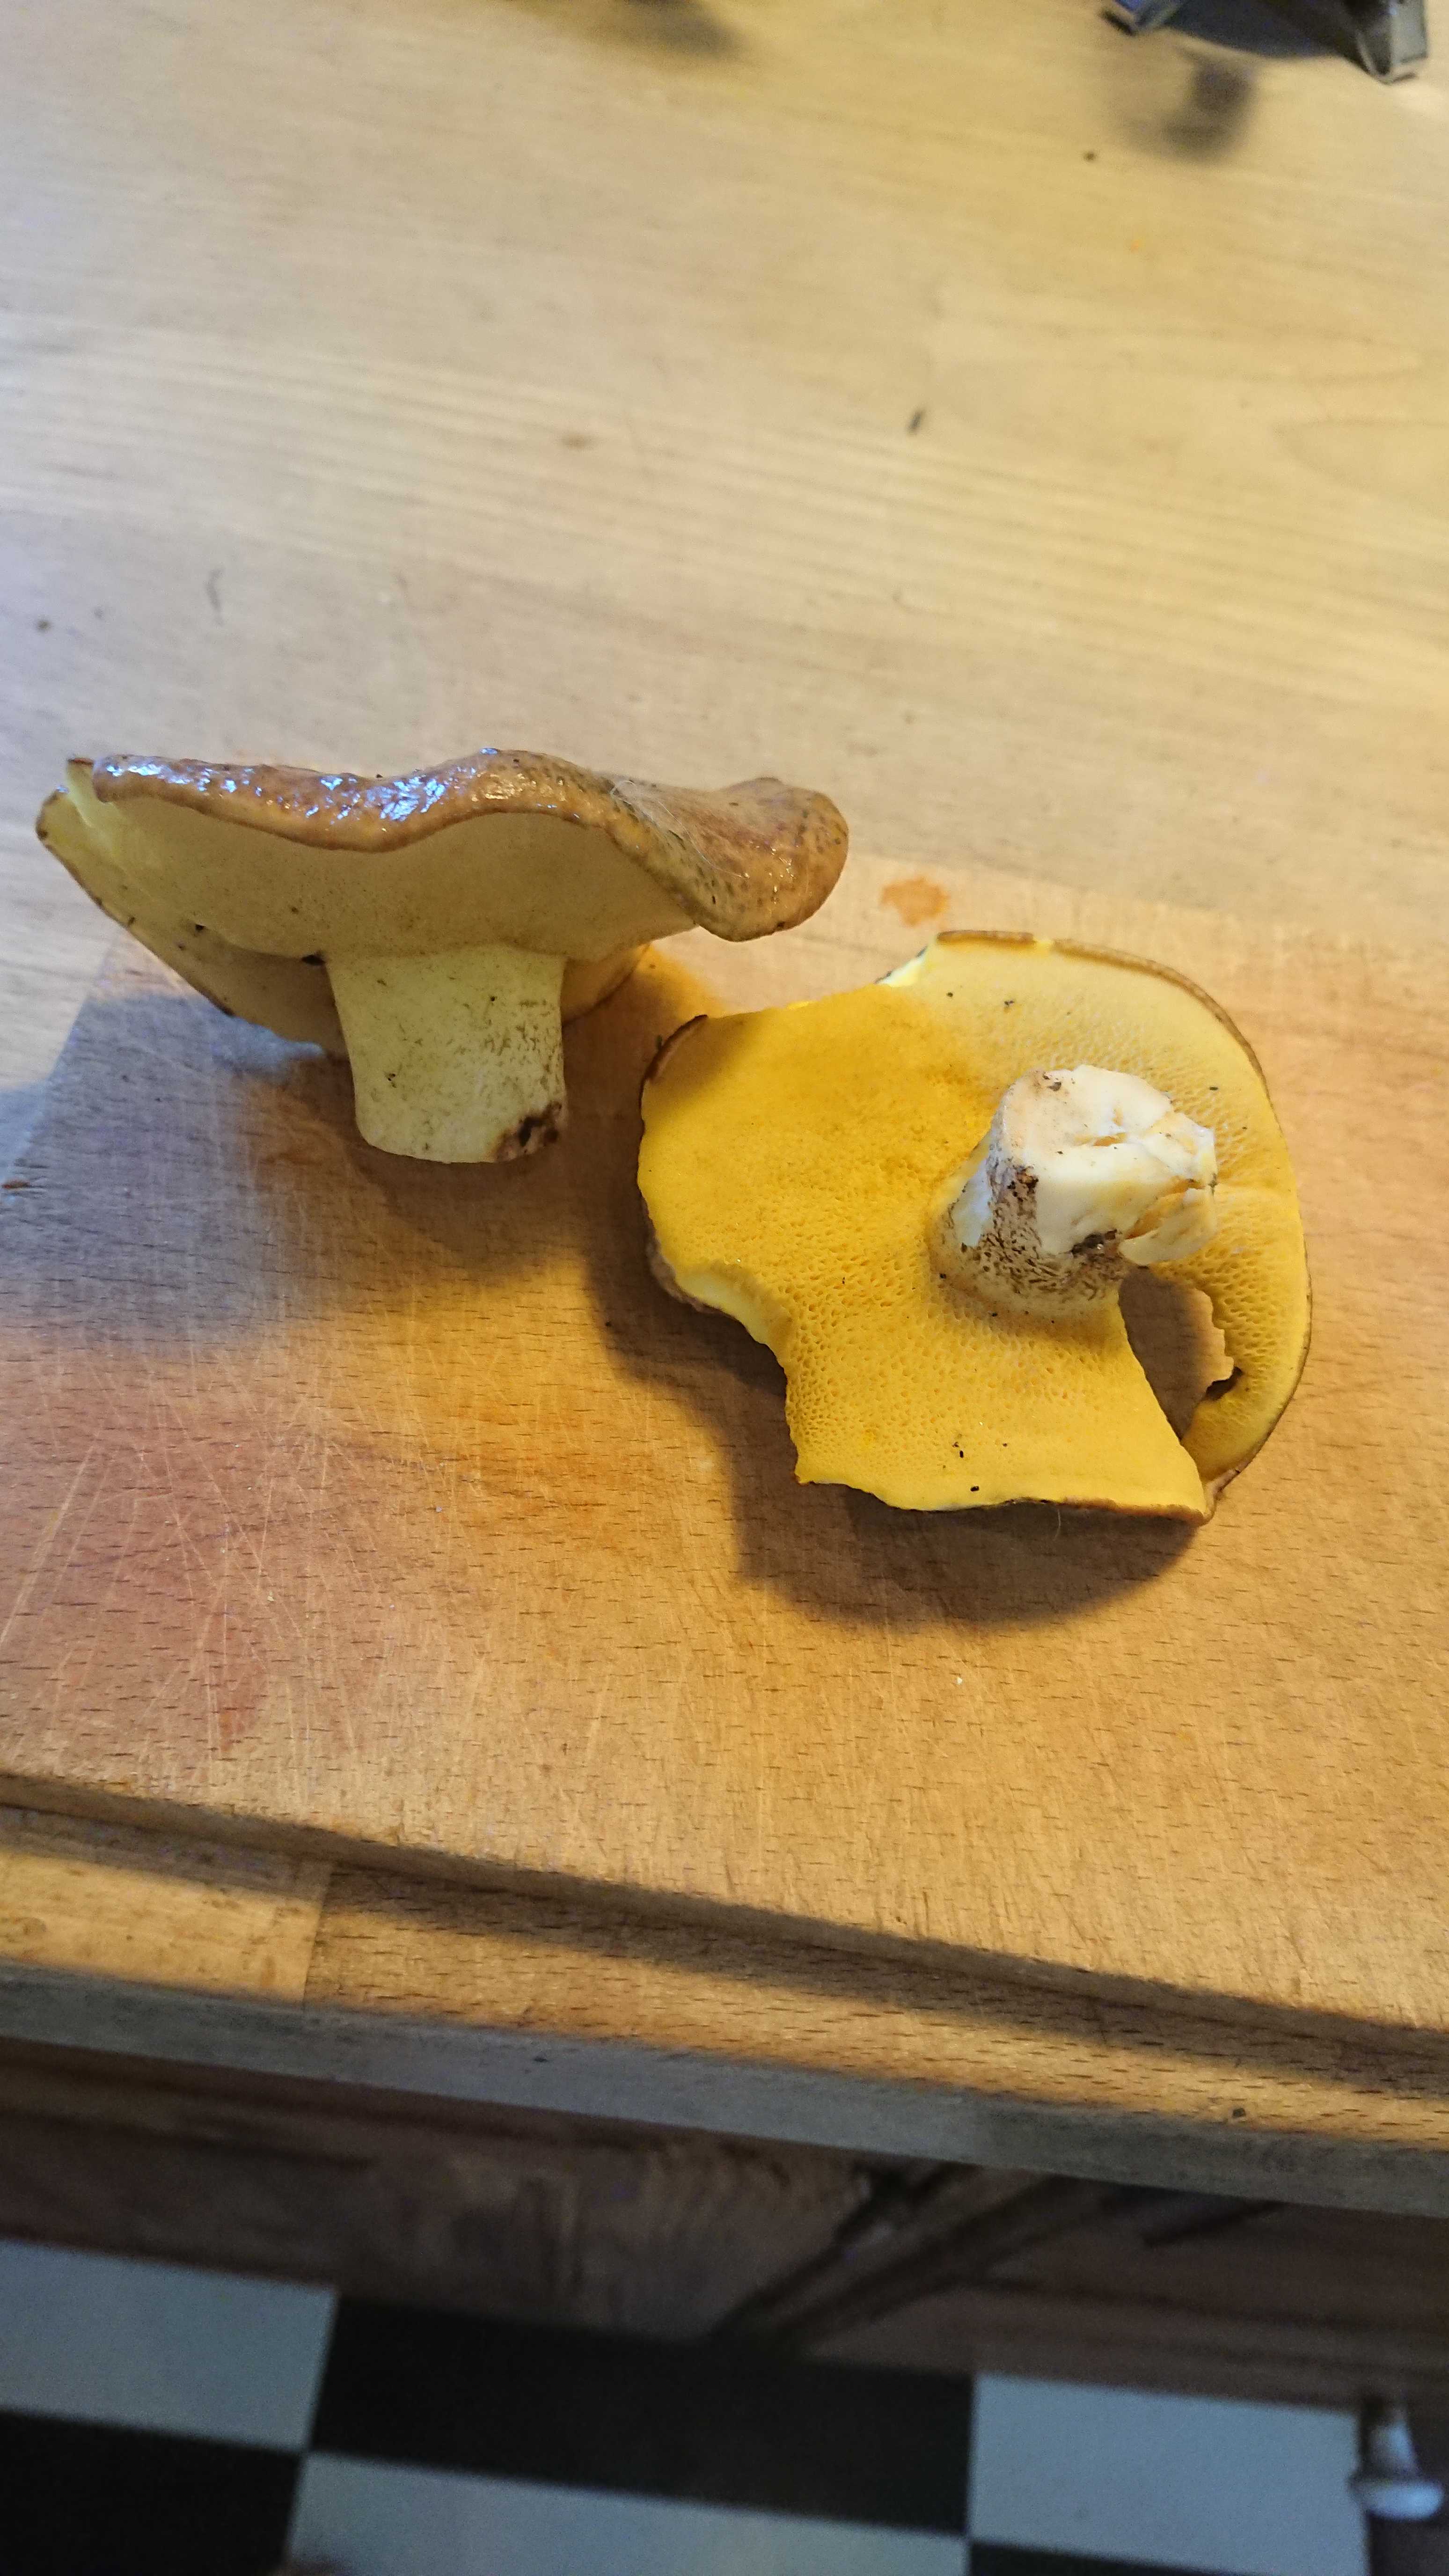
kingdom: Fungi
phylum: Basidiomycota
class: Agaricomycetes
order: Boletales
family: Suillaceae
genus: Suillus
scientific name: Suillus
